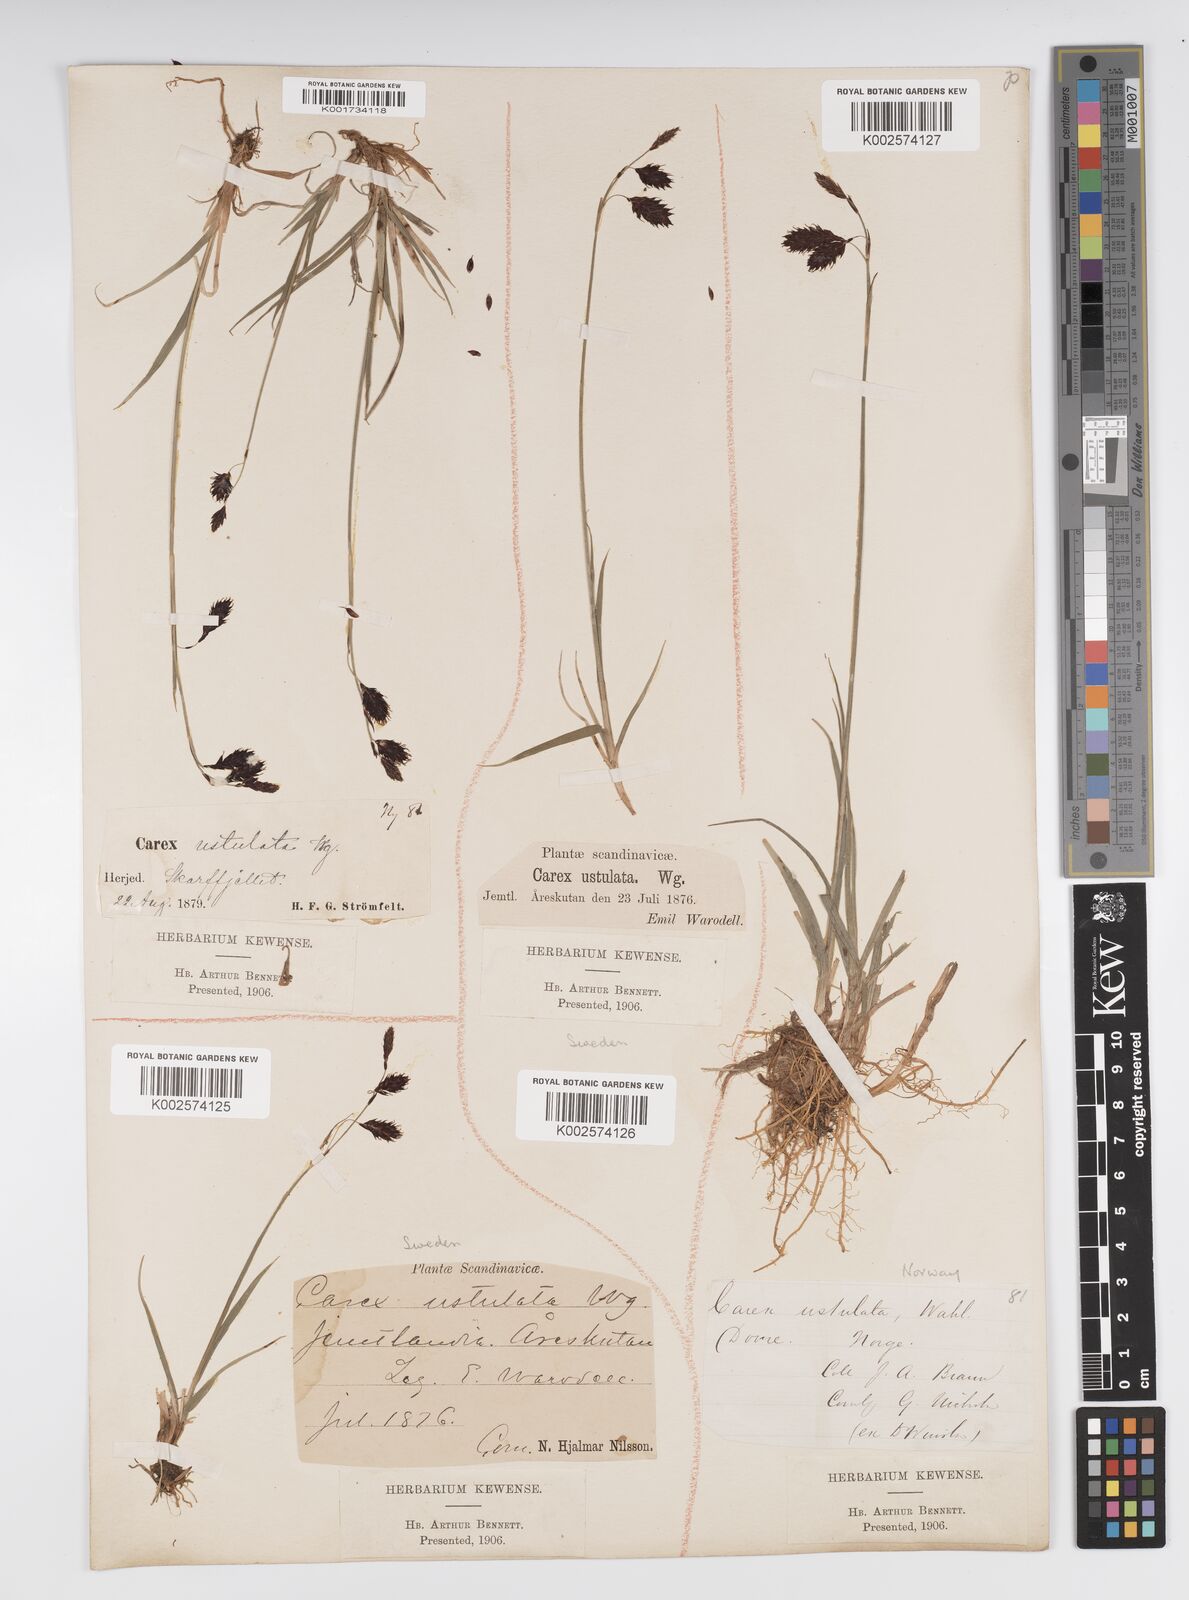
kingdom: Plantae
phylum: Tracheophyta
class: Liliopsida
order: Poales
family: Cyperaceae
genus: Carex
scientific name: Carex atrofusca
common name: Scorched alpine-sedge
